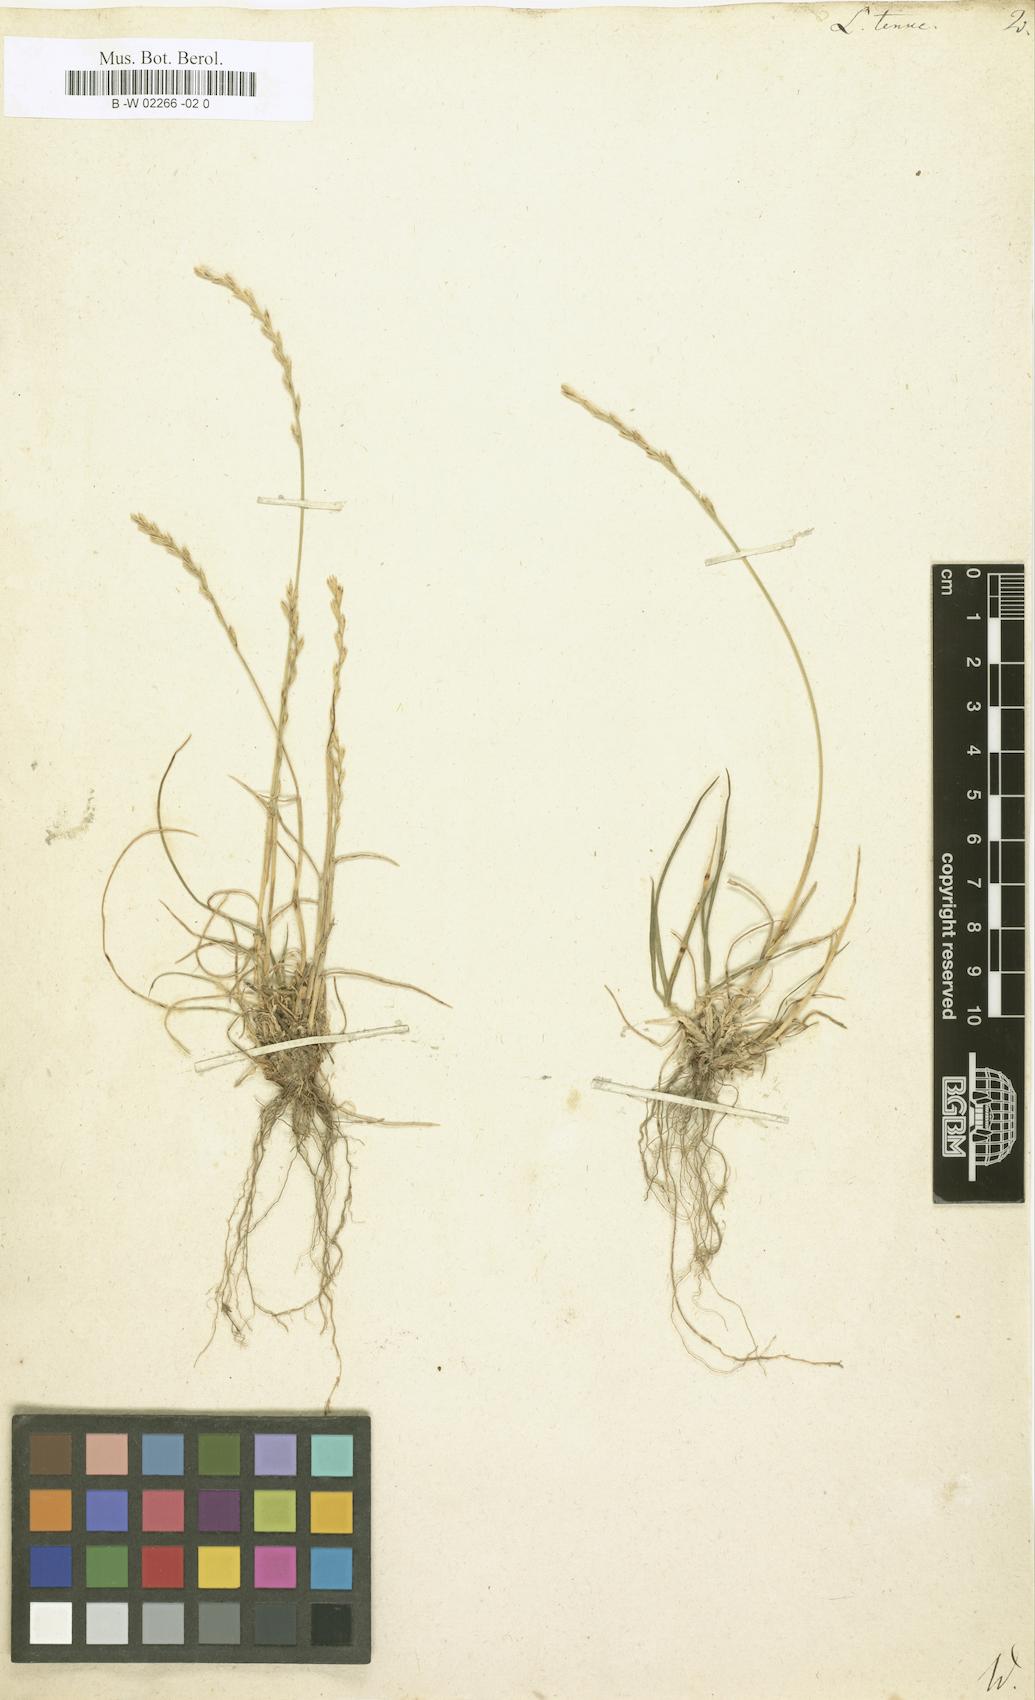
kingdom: Plantae
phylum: Tracheophyta
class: Liliopsida
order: Poales
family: Poaceae
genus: Lolium
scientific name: Lolium tenue
